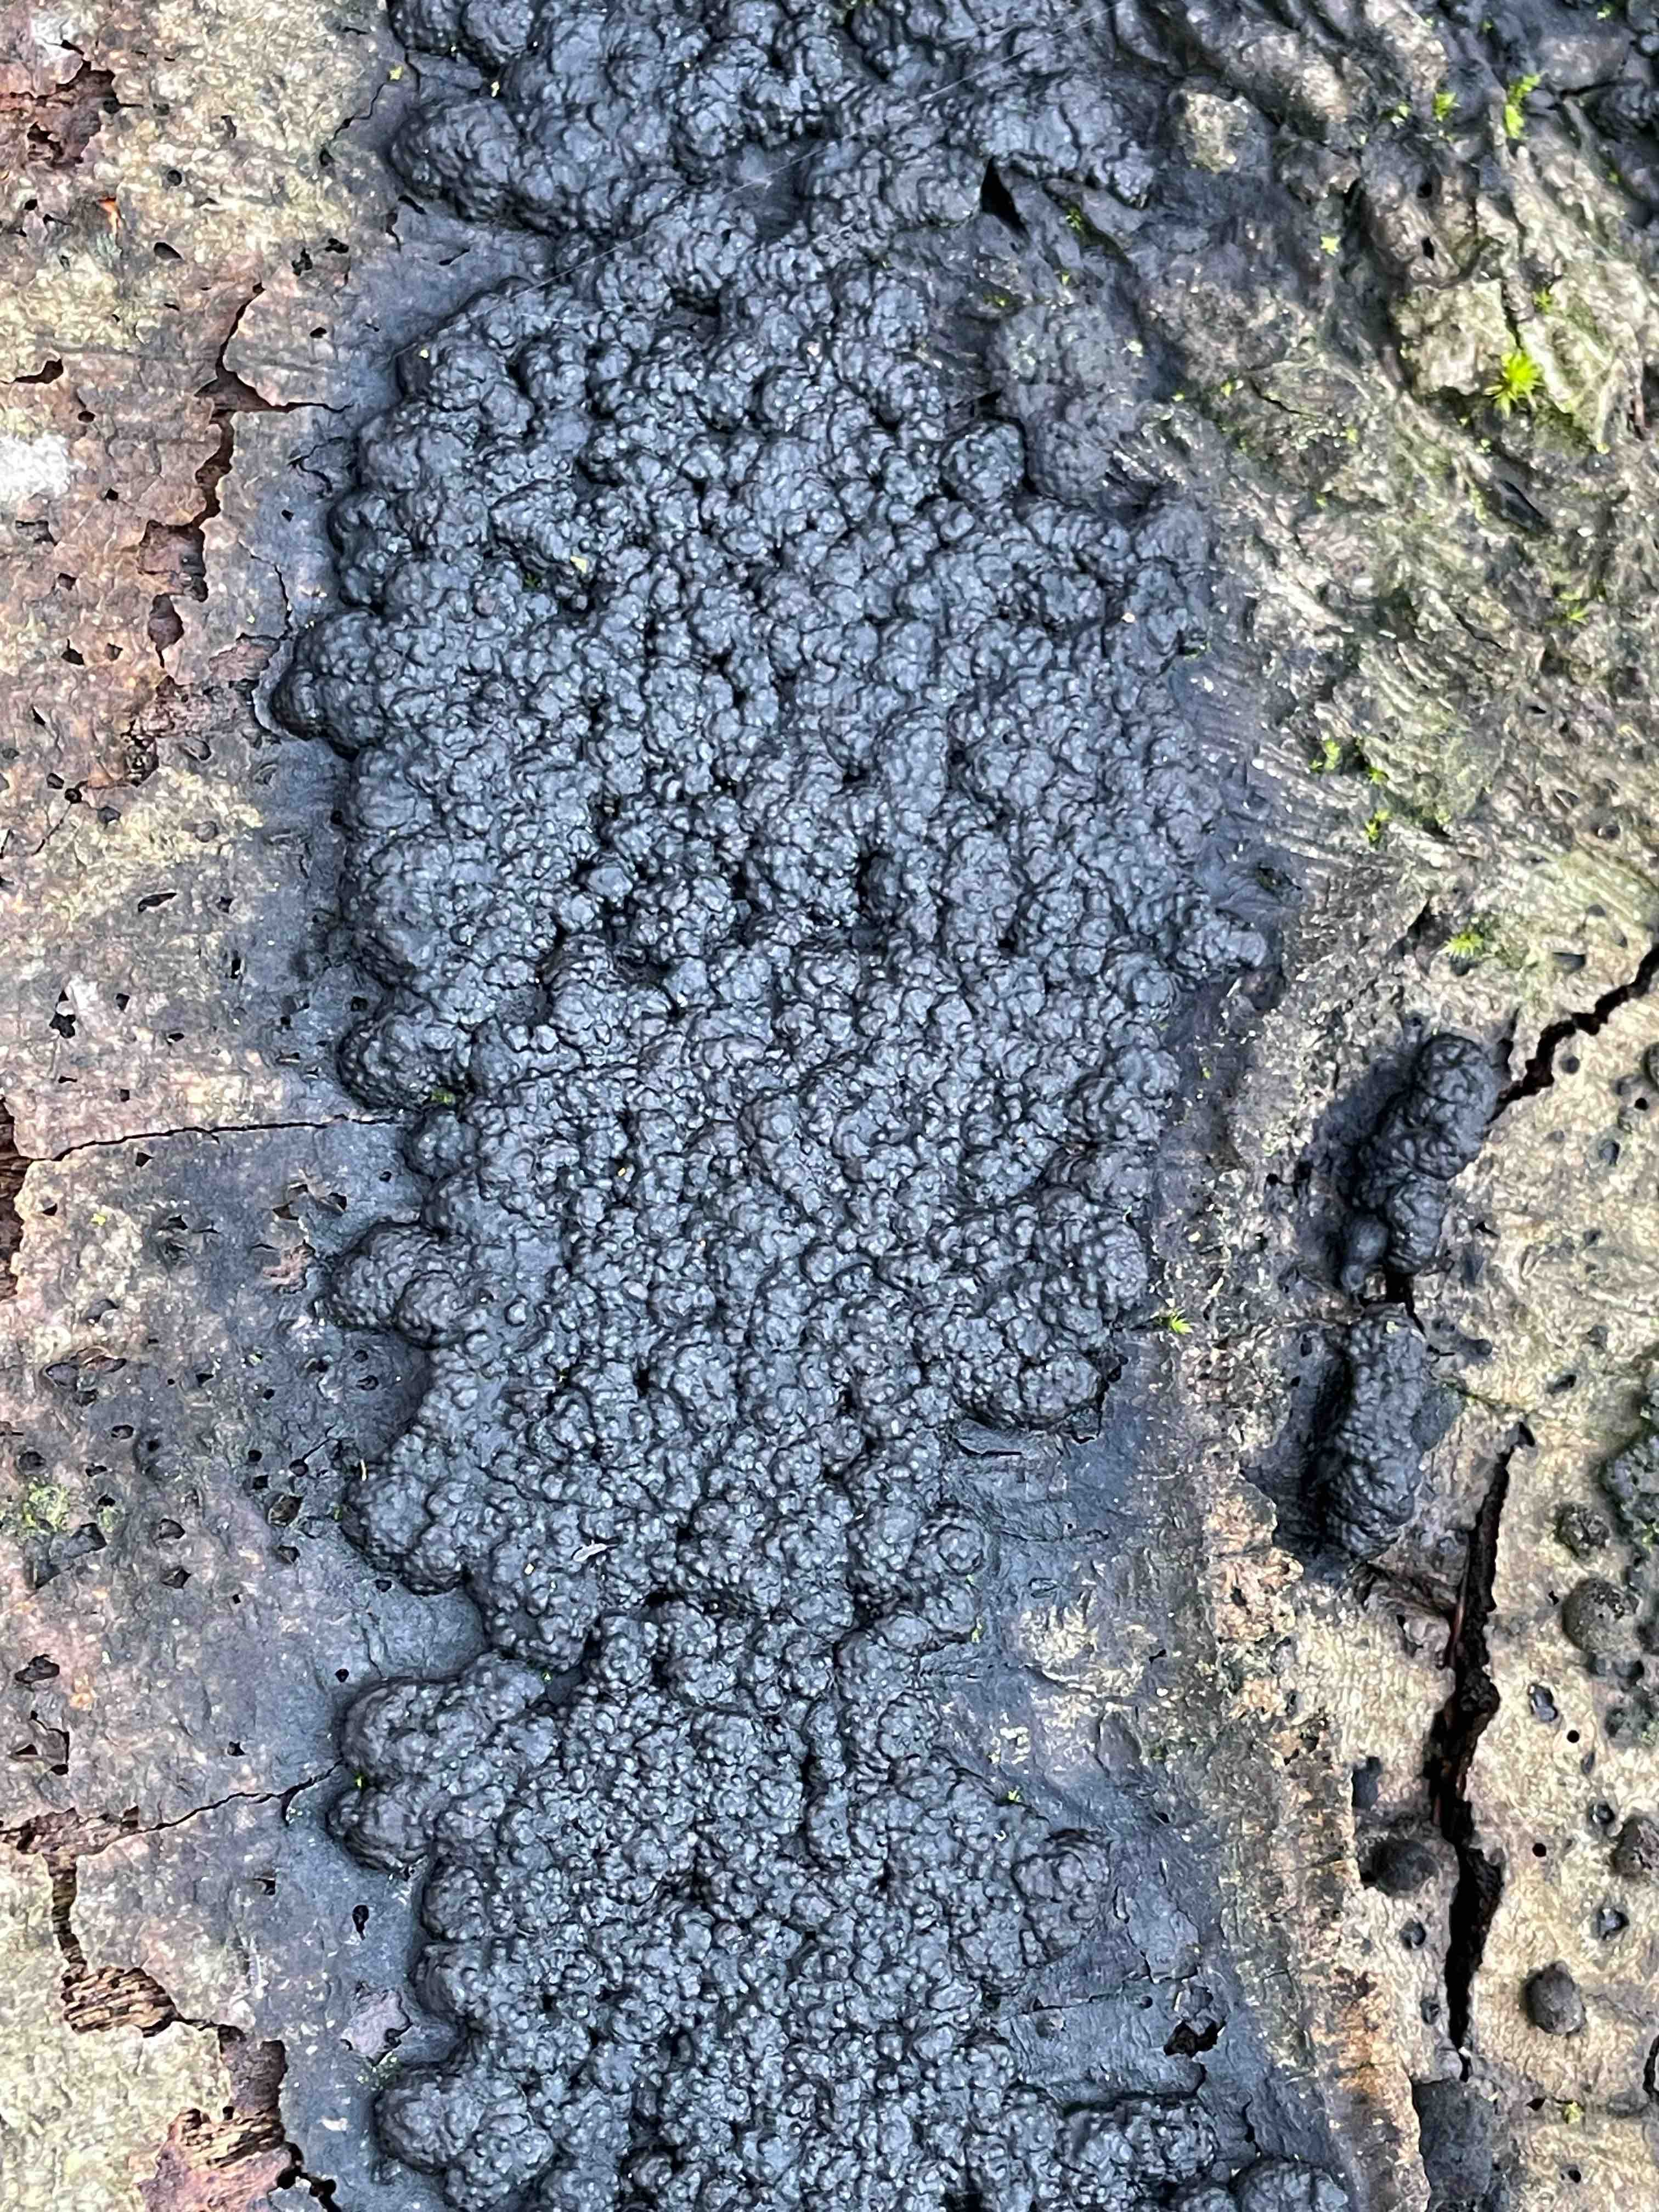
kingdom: Fungi
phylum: Ascomycota
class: Sordariomycetes
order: Xylariales
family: Hypoxylaceae
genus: Jackrogersella
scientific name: Jackrogersella cohaerens
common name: sammenflydende kulbær
